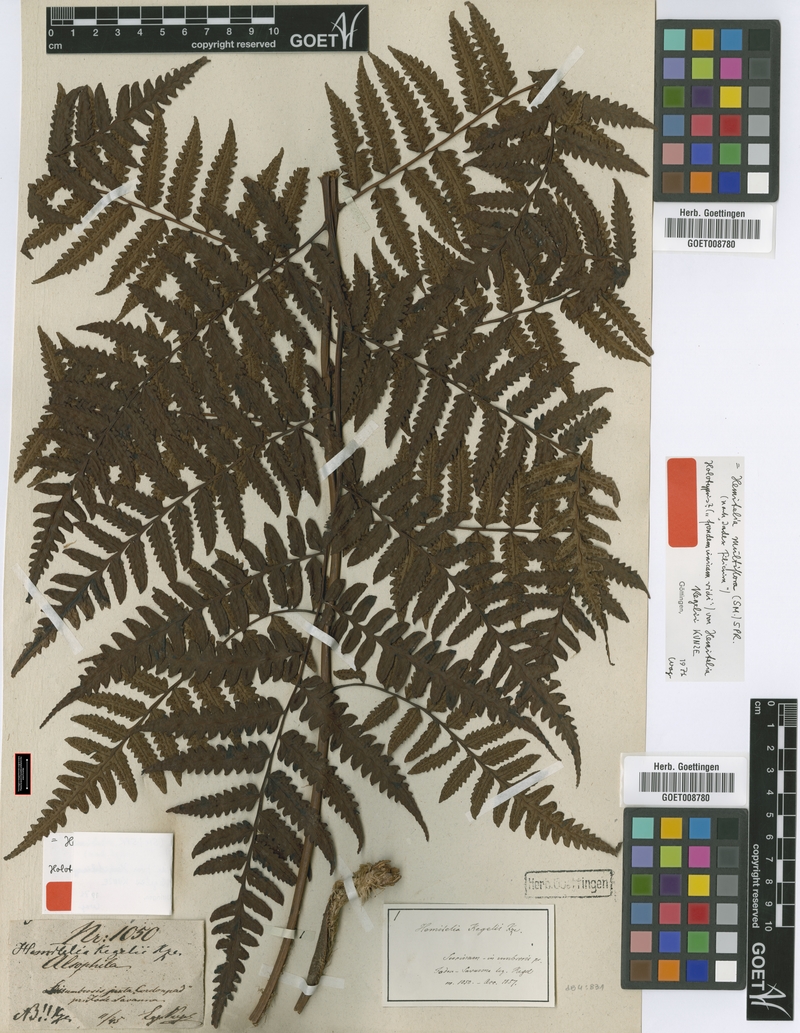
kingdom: Plantae
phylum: Tracheophyta
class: Polypodiopsida
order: Cyatheales
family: Cyatheaceae
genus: Cyathea
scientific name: Cyathea multiflora
